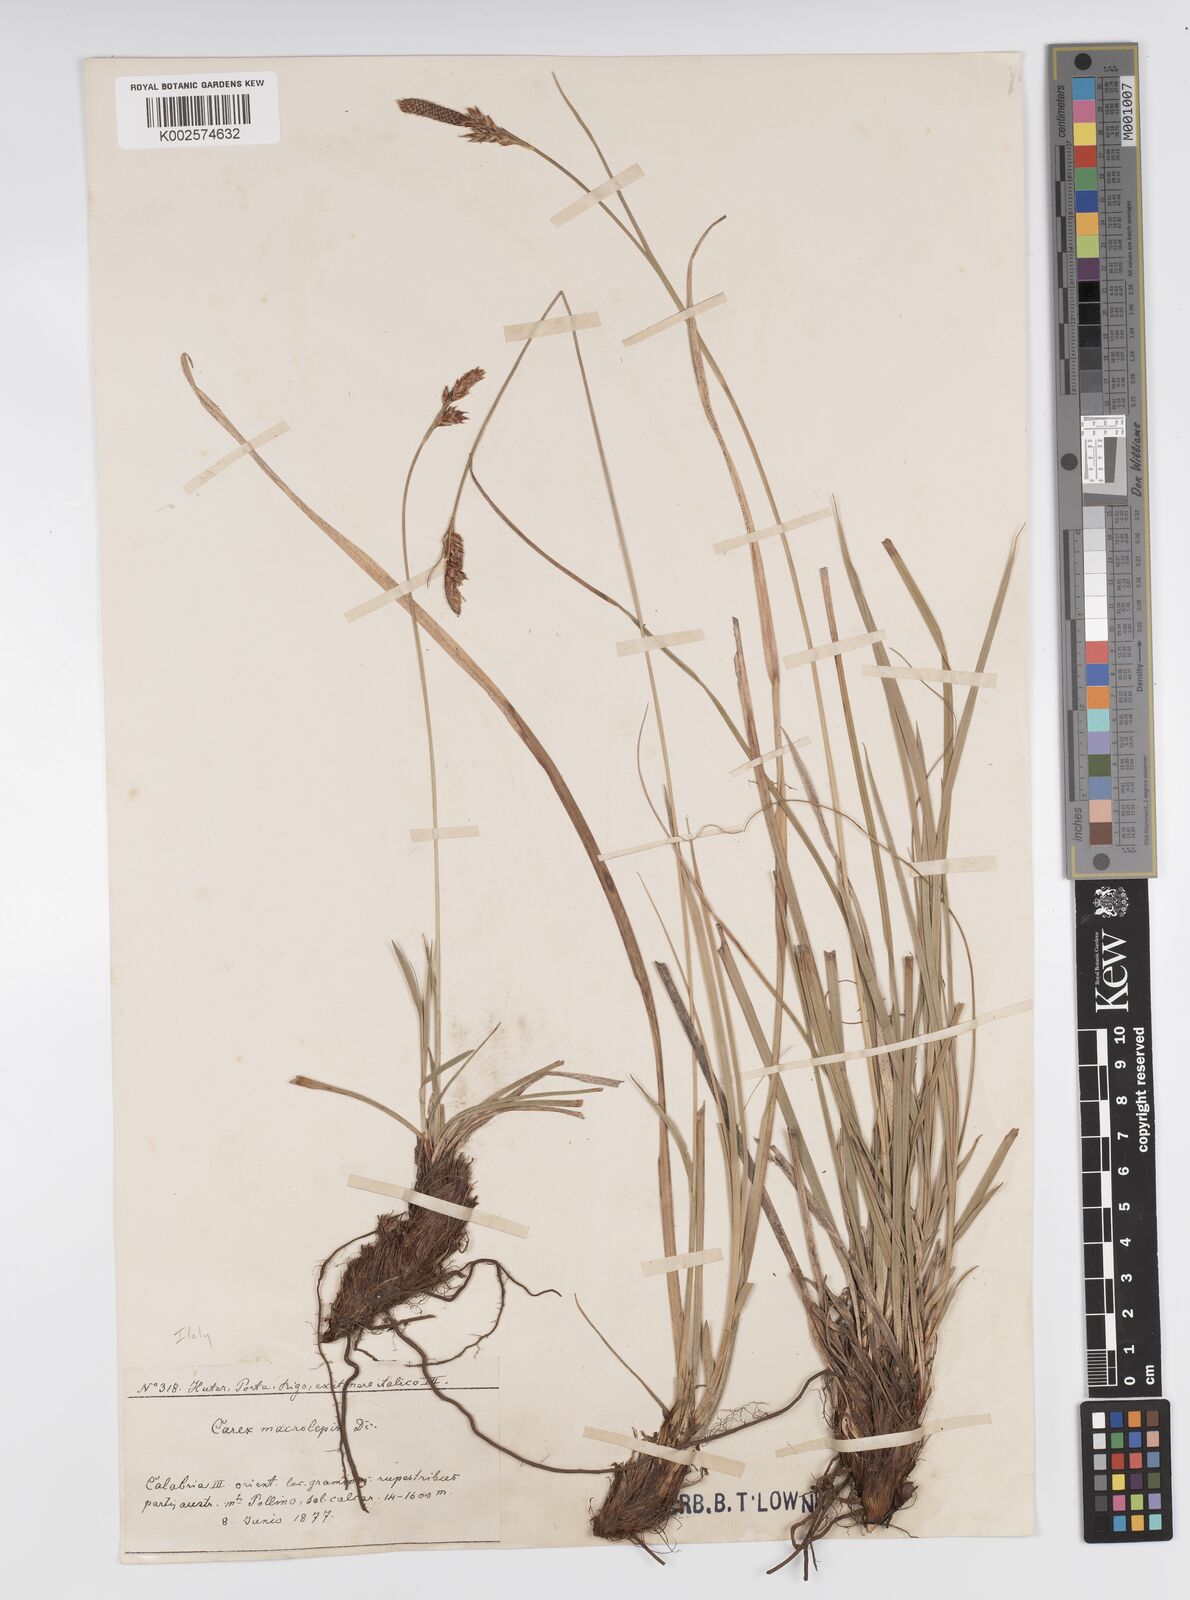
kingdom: Plantae
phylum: Tracheophyta
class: Liliopsida
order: Poales
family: Cyperaceae
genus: Carex
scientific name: Carex macrolepis
